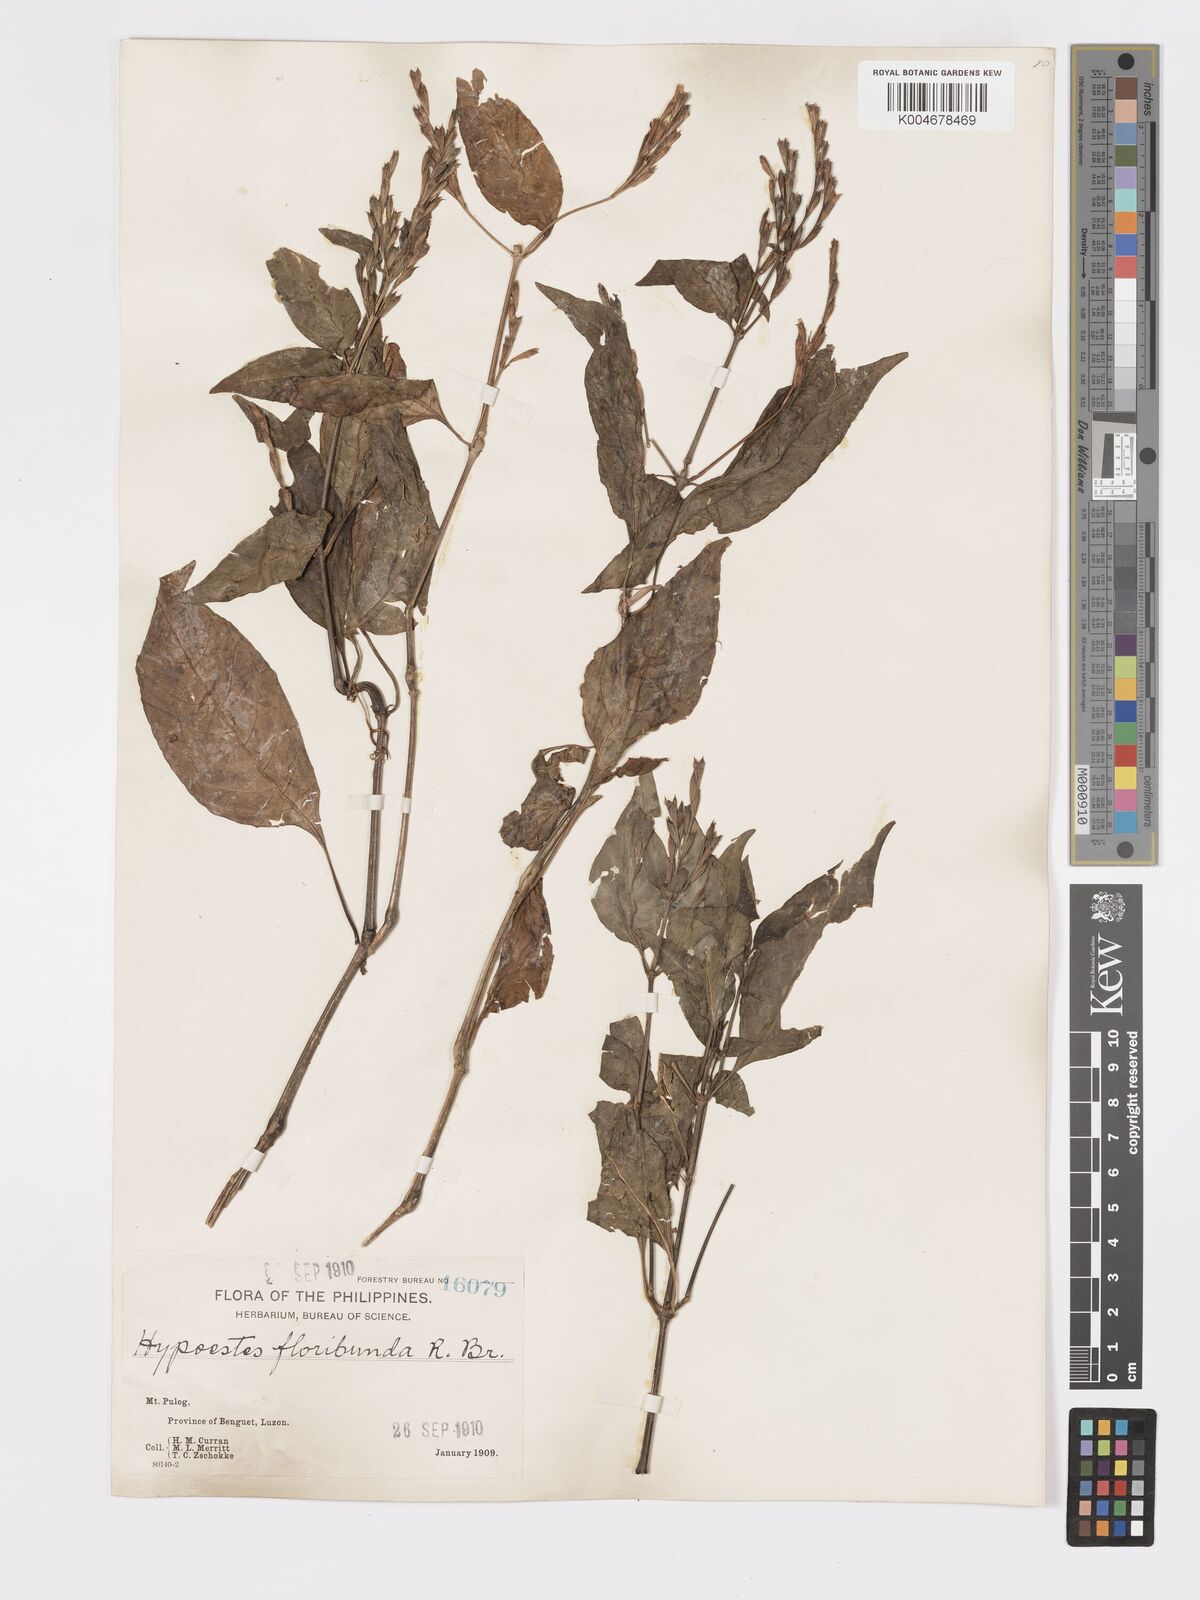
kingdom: Plantae
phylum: Tracheophyta
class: Magnoliopsida
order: Lamiales
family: Acanthaceae
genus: Hypoestes
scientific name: Hypoestes floribunda
